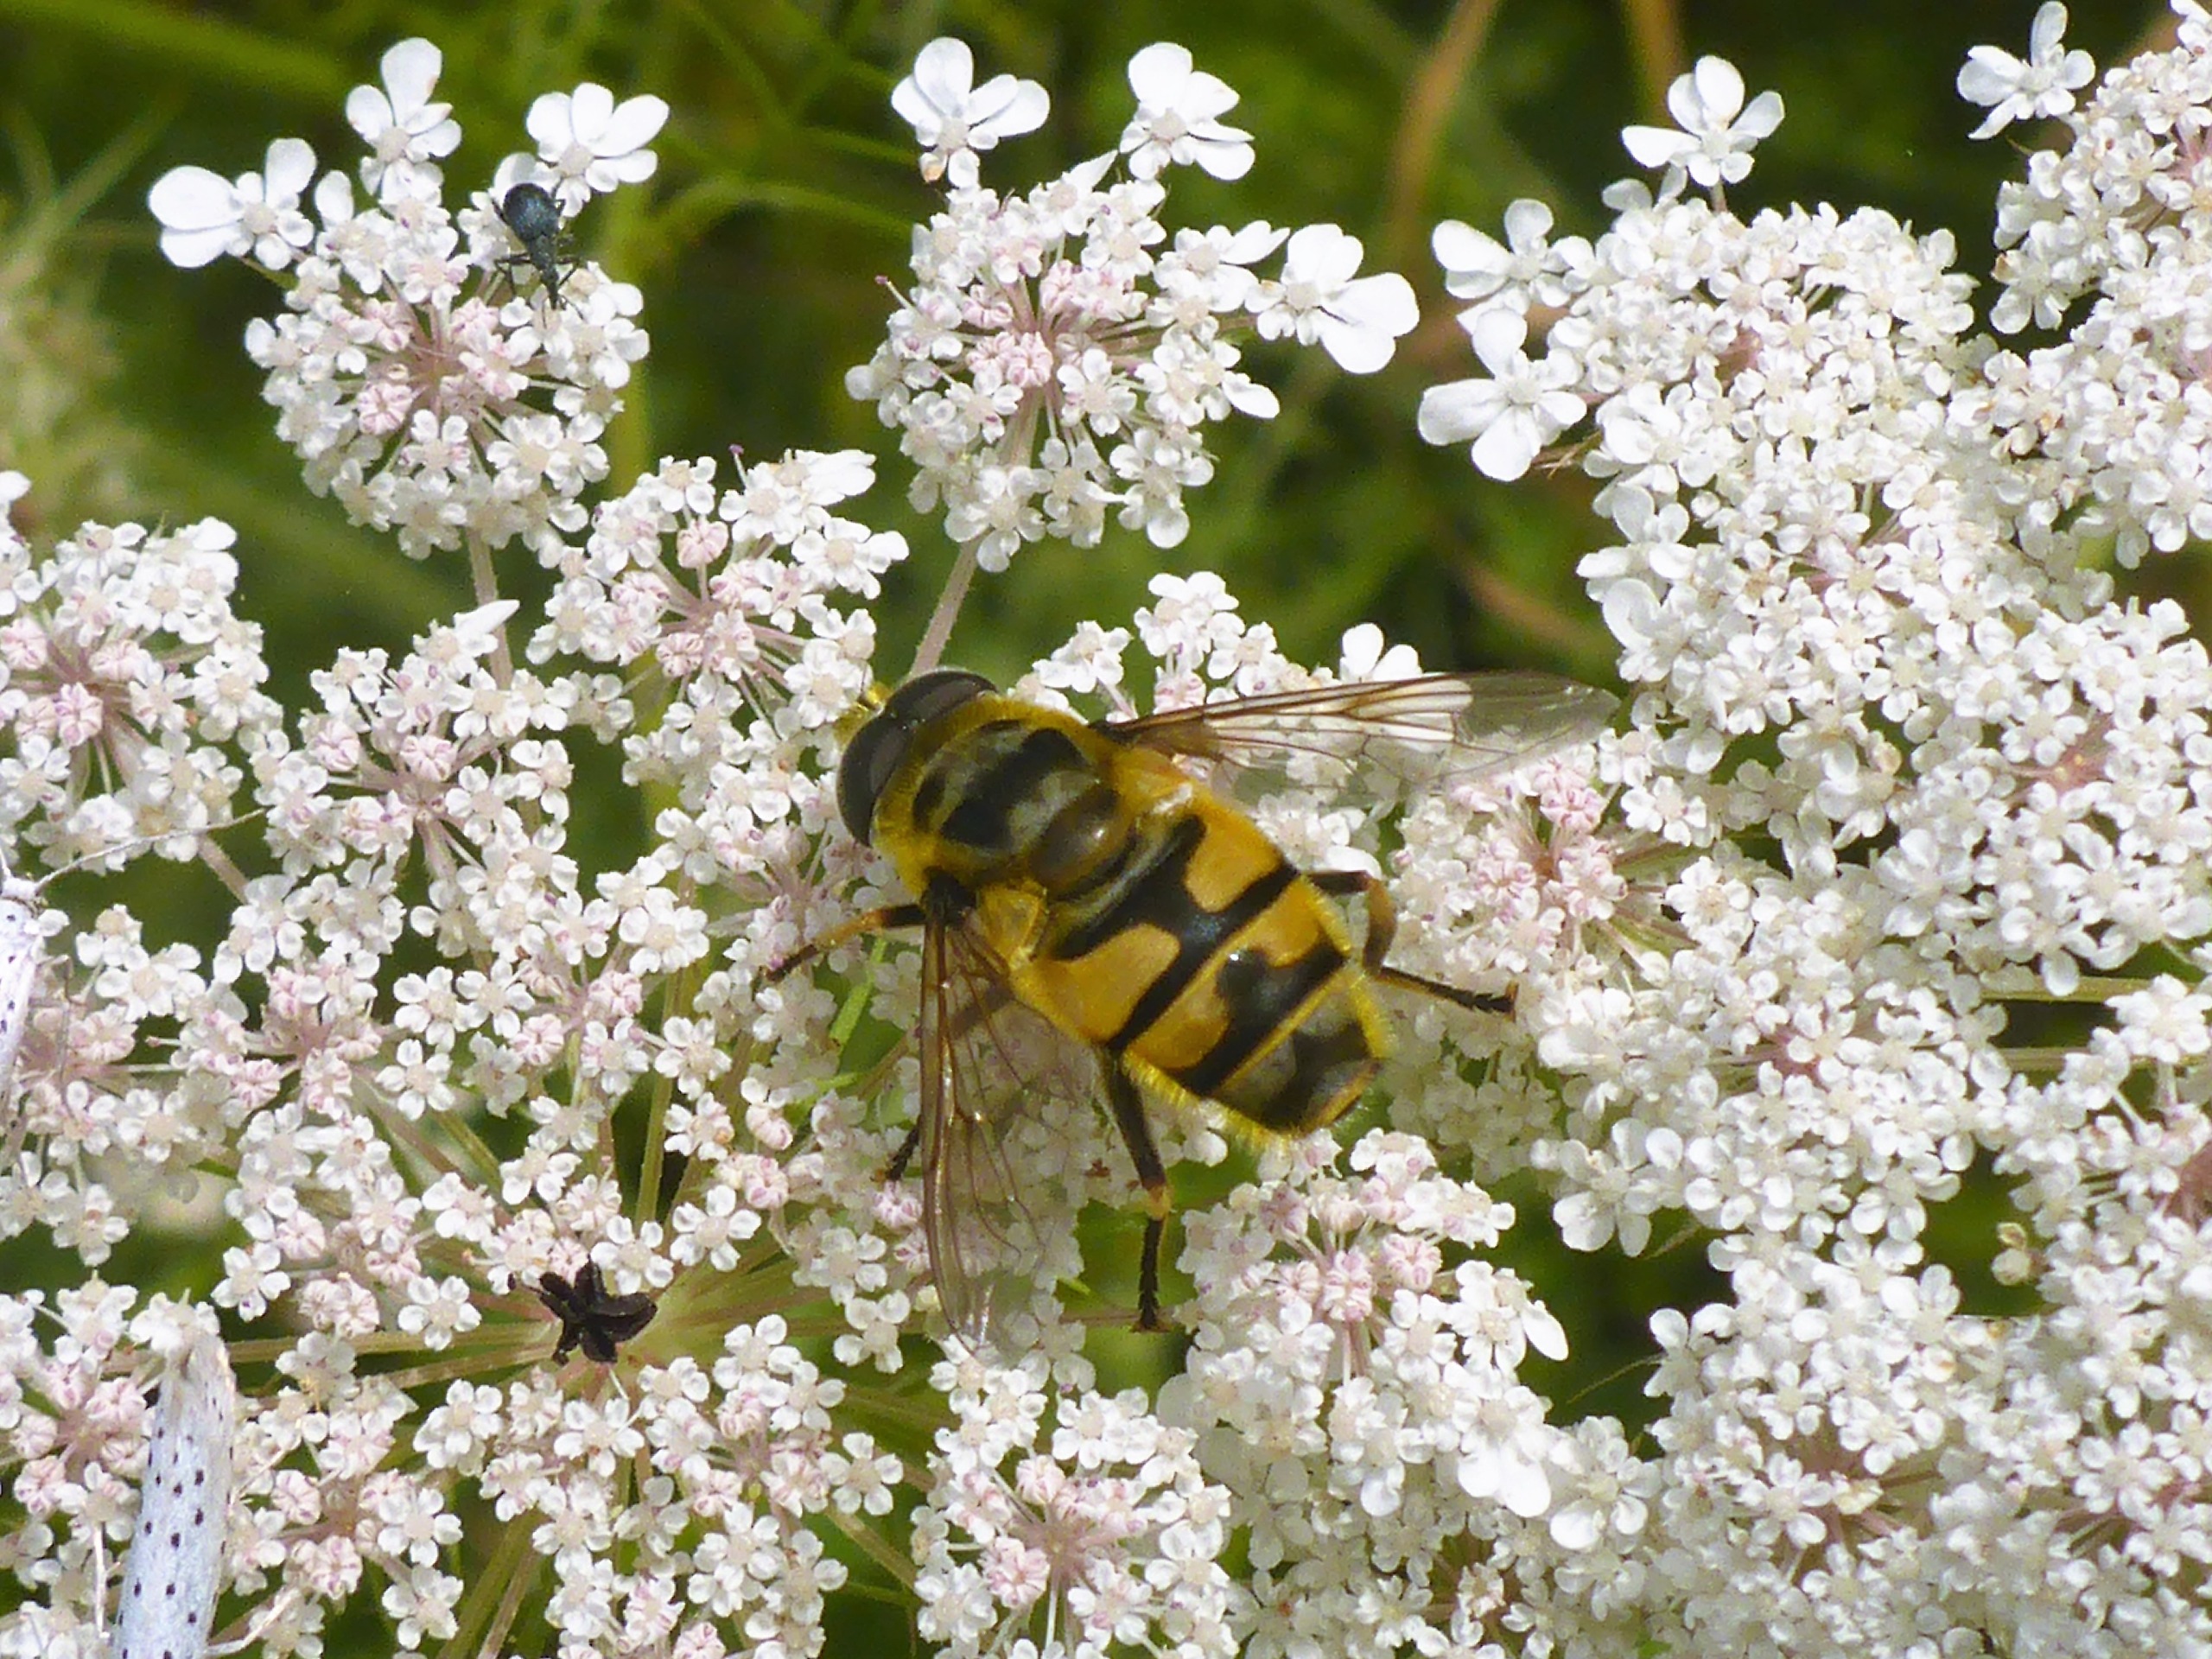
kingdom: Animalia
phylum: Arthropoda
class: Insecta
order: Diptera
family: Syrphidae
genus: Myathropa
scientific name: Myathropa florea
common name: Dødningehoved-svirreflue
